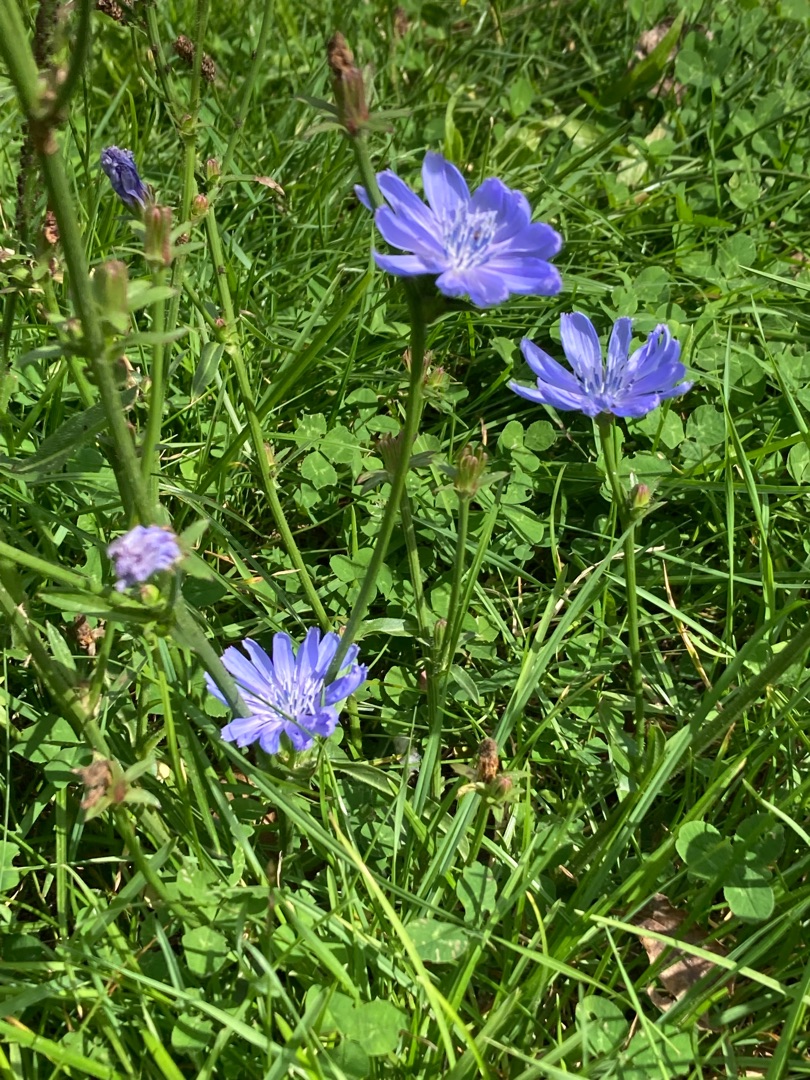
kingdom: Plantae
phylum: Tracheophyta
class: Magnoliopsida
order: Asterales
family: Asteraceae
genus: Cichorium
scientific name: Cichorium intybus
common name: Cikorie
